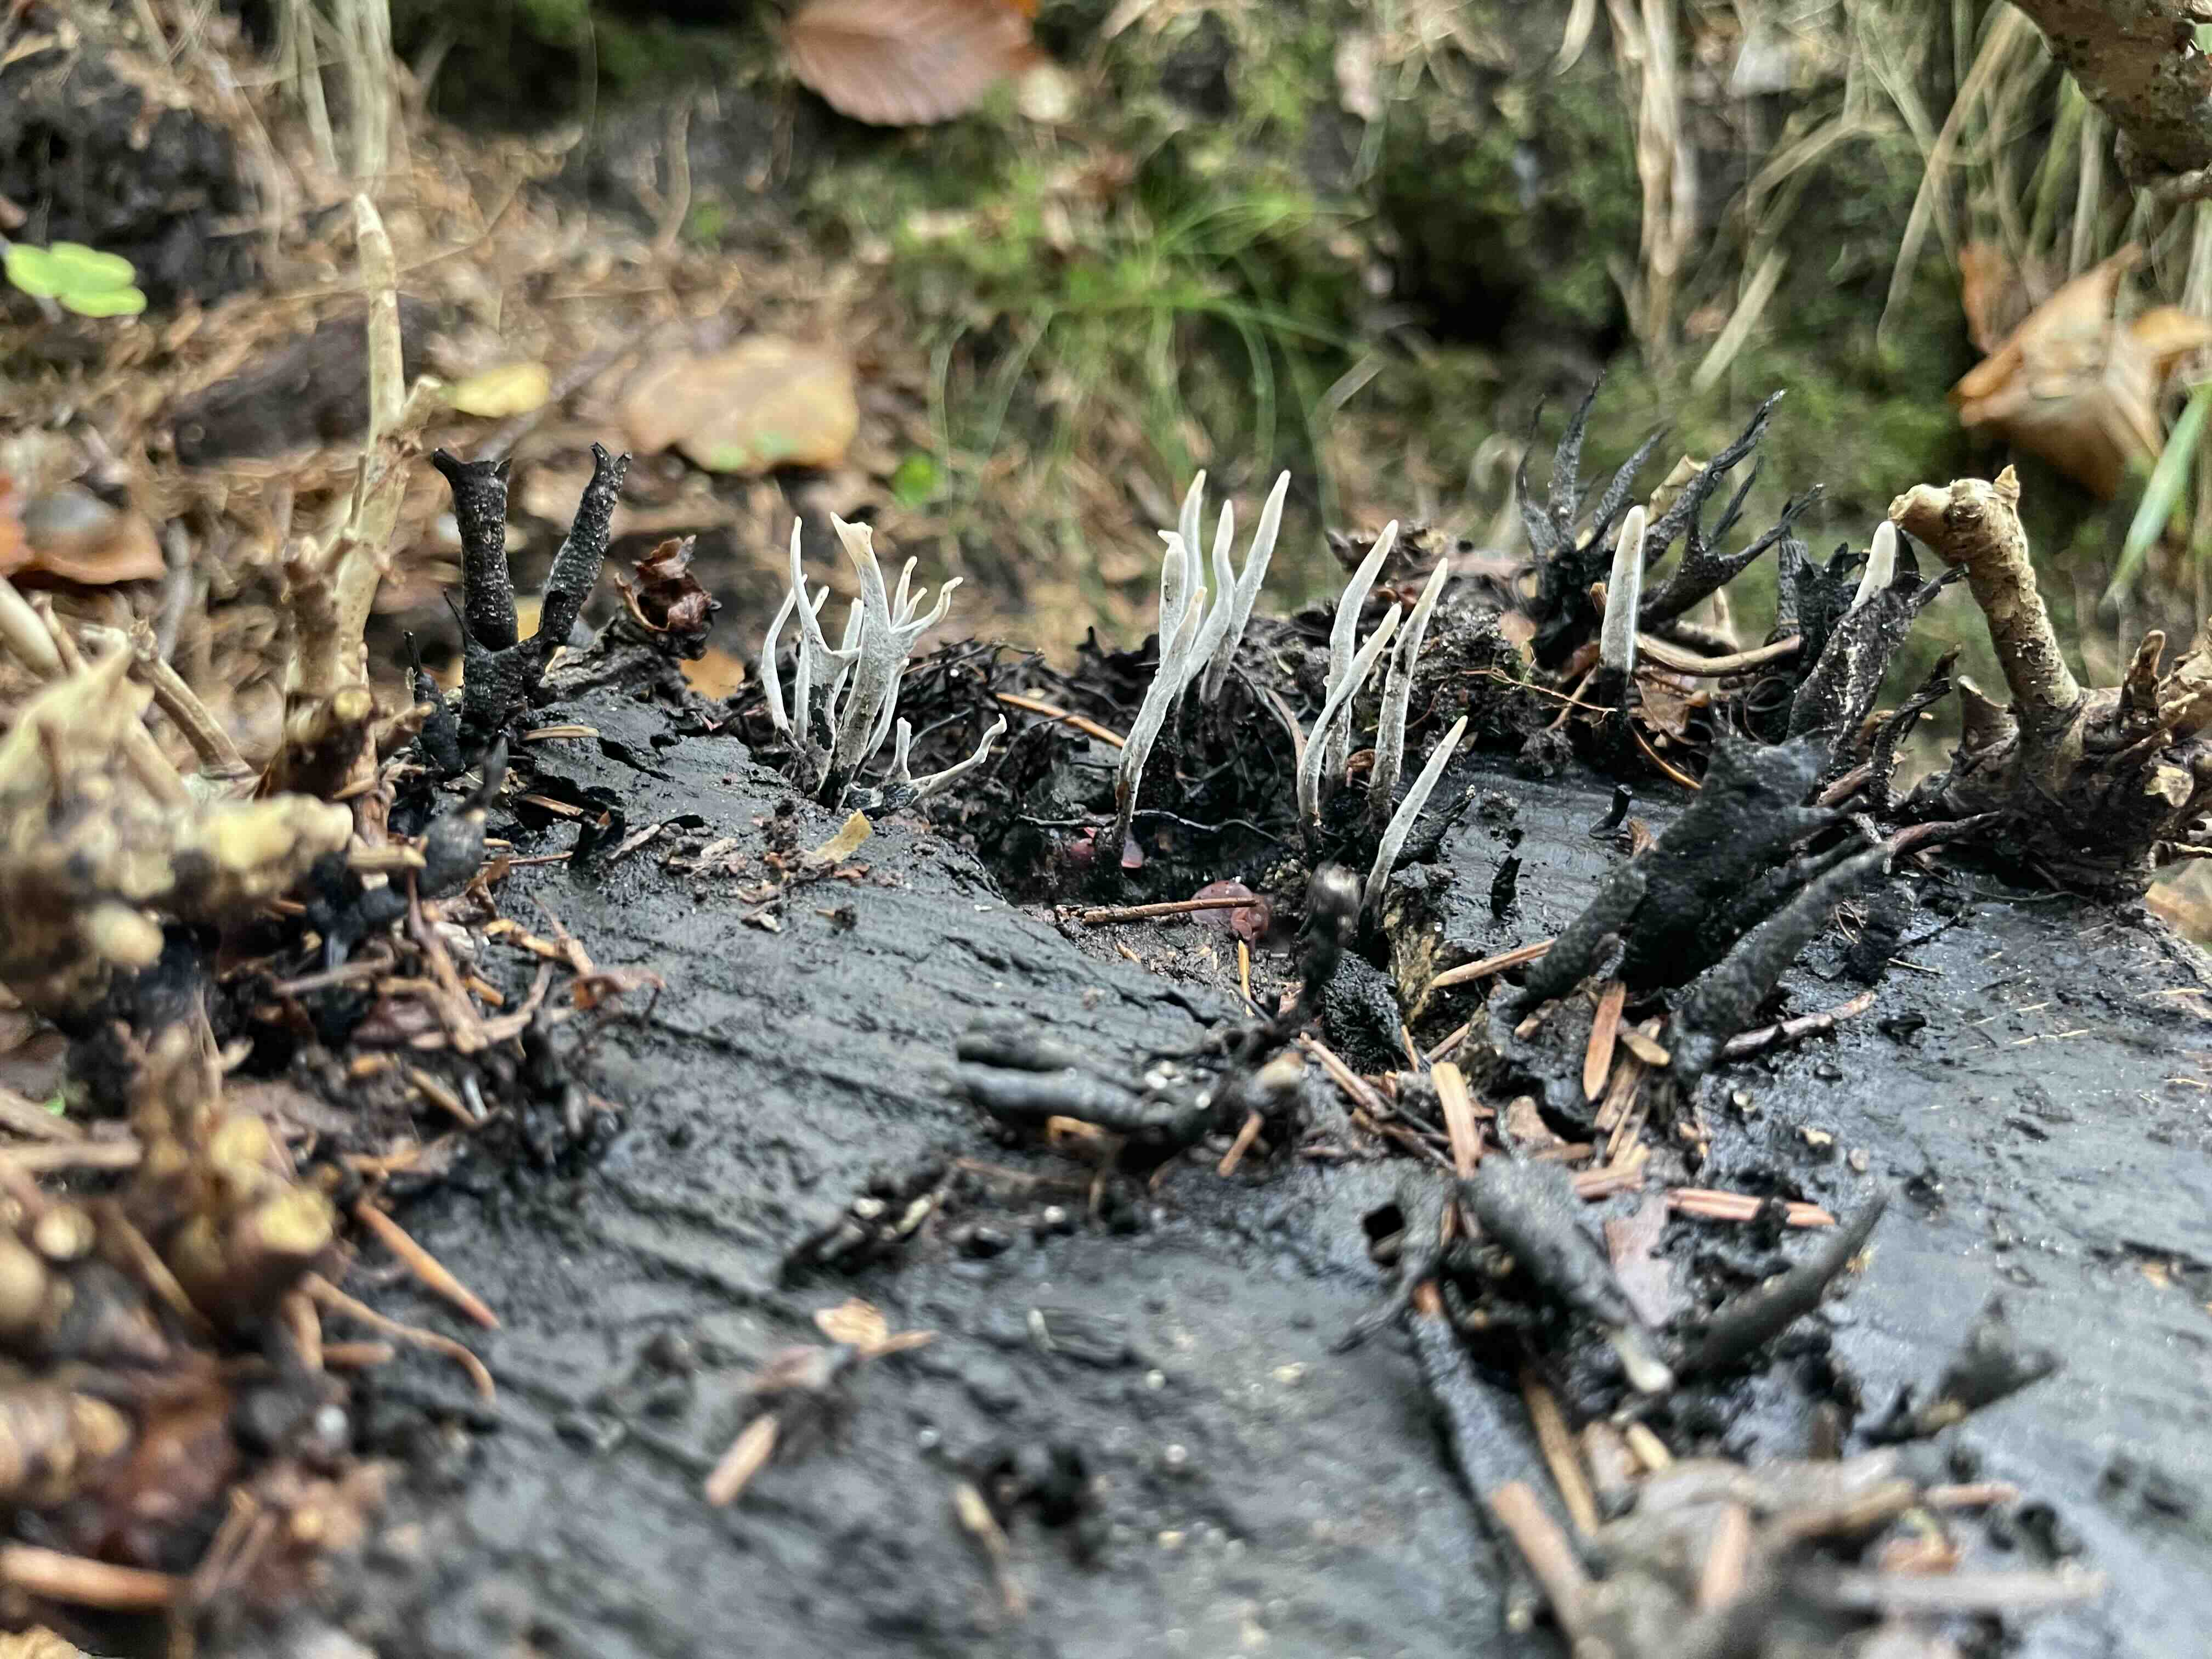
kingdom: Fungi
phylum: Ascomycota
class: Sordariomycetes
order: Xylariales
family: Xylariaceae
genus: Xylaria
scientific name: Xylaria hypoxylon
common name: grenet stødsvamp
